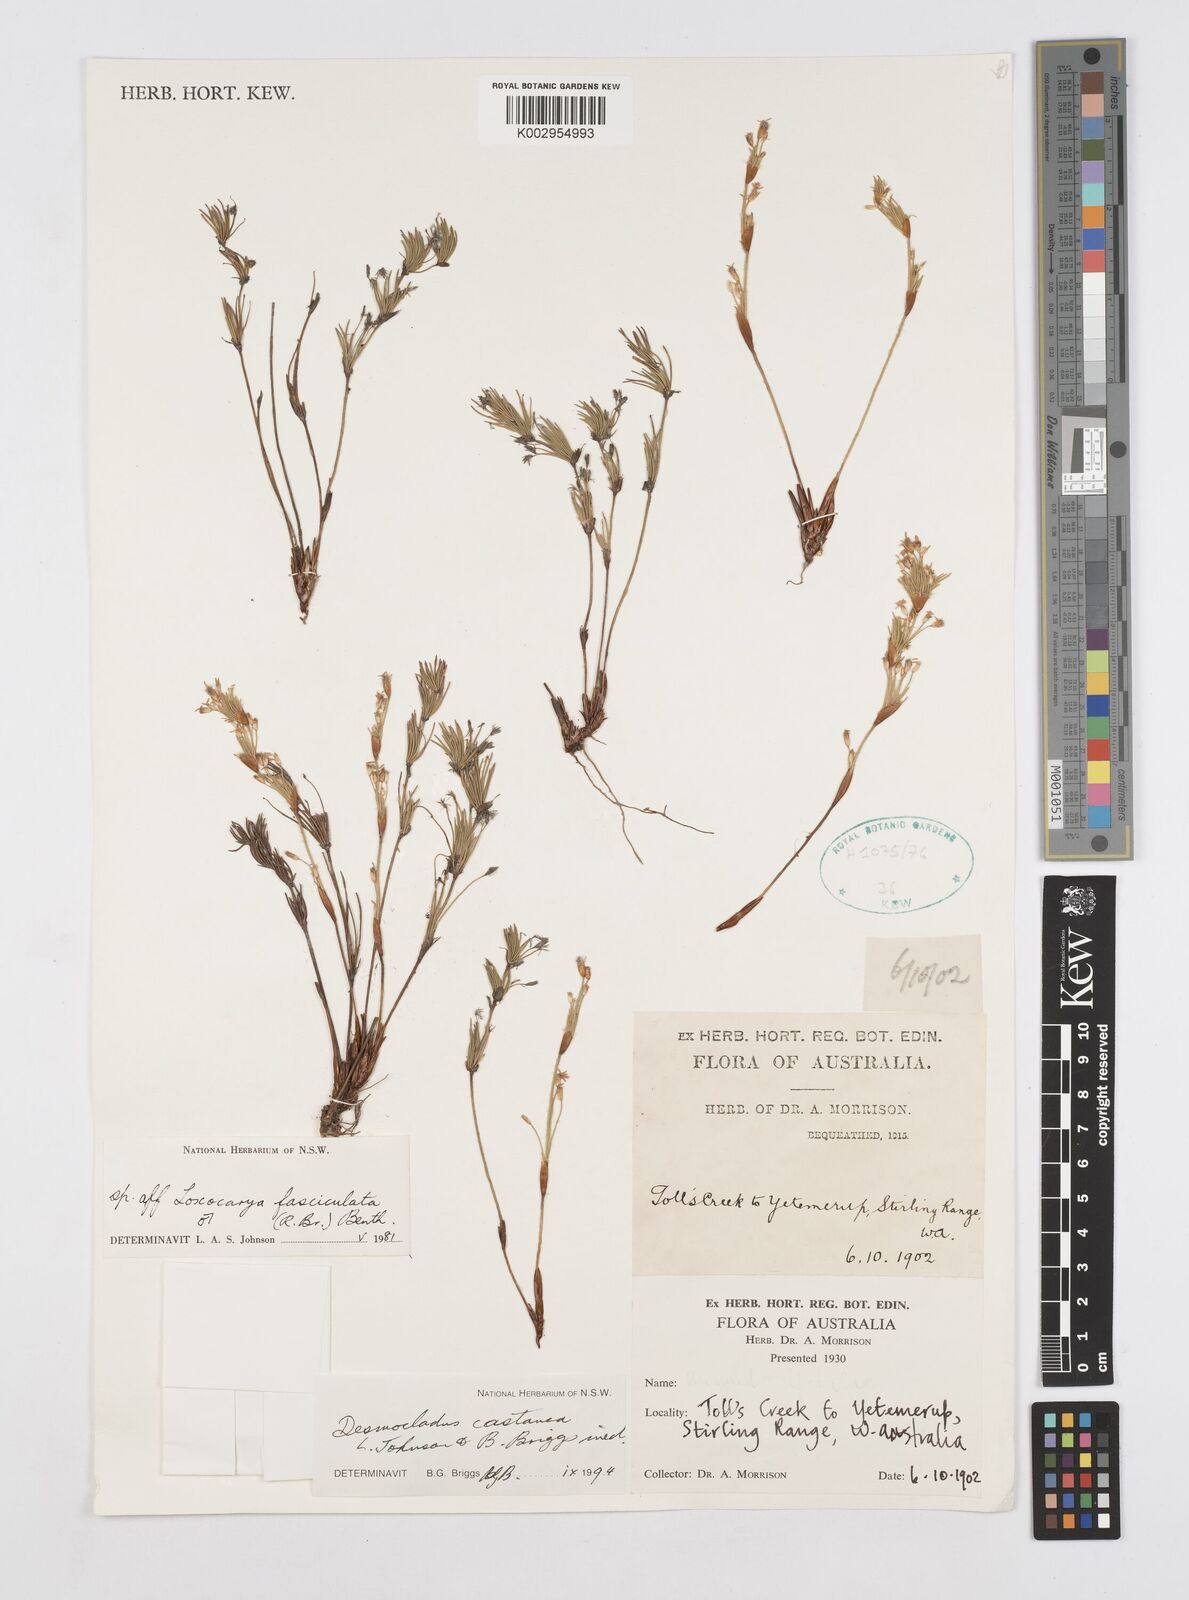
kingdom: Plantae
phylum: Tracheophyta
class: Liliopsida
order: Poales
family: Restionaceae
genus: Desmocladus
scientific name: Desmocladus castaneus
